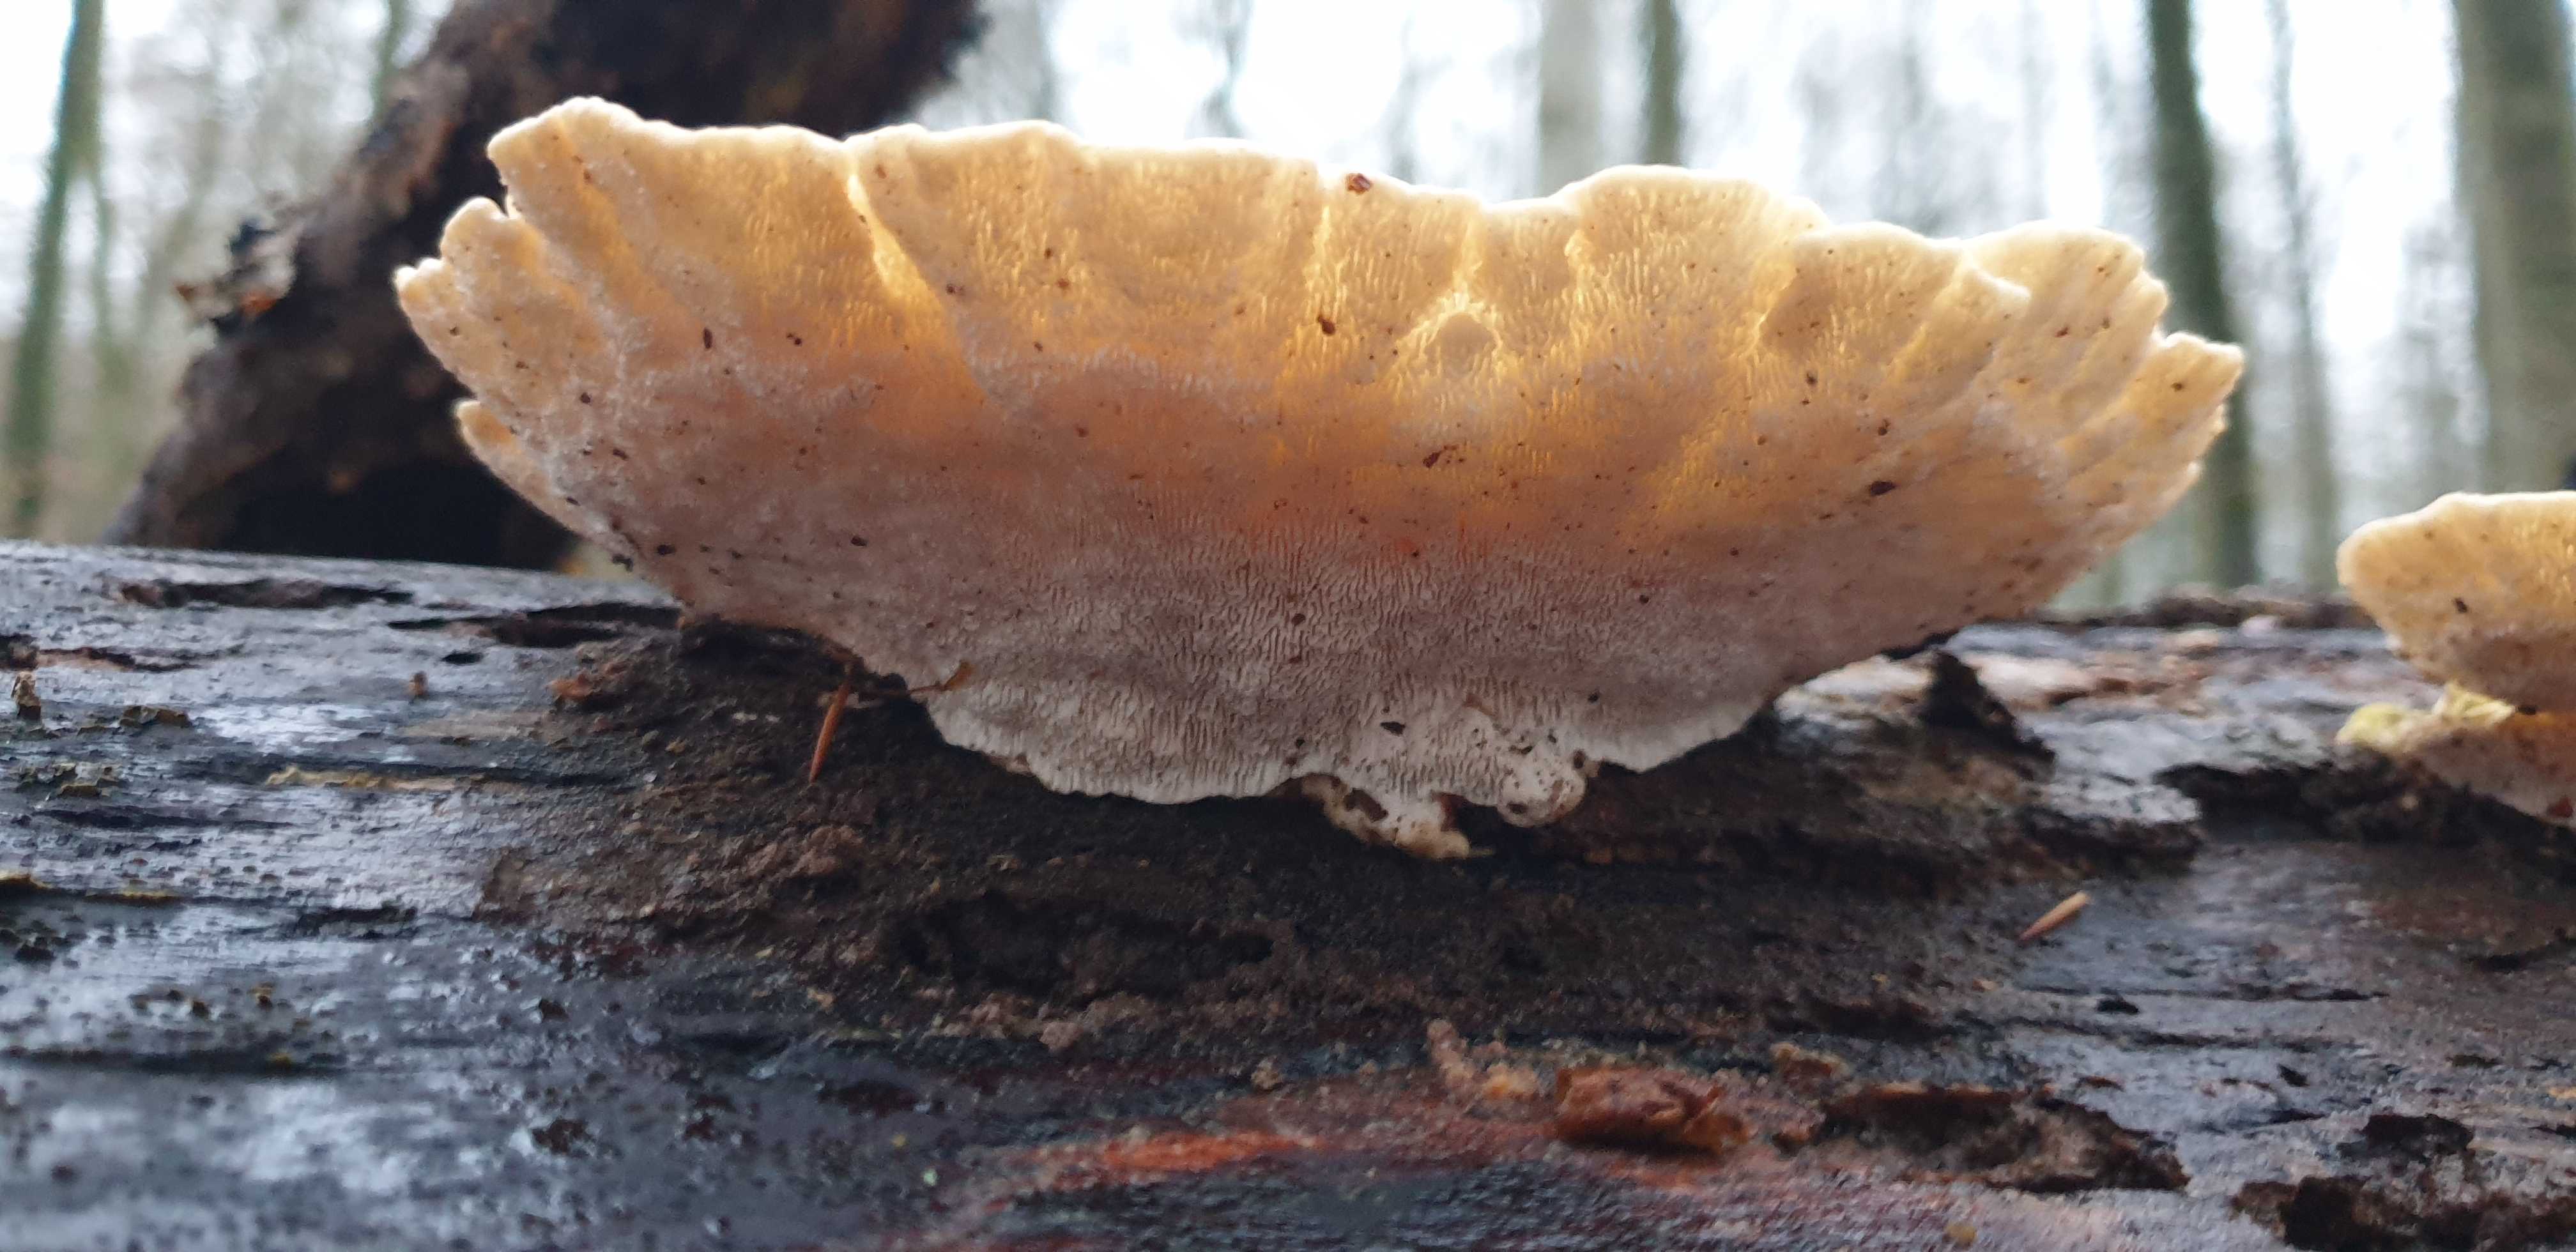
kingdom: Fungi
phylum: Basidiomycota
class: Agaricomycetes
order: Polyporales
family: Polyporaceae
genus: Trametes
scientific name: Trametes gibbosa
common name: puklet læderporesvamp
